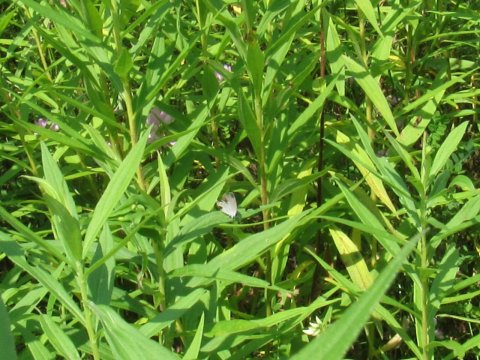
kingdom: Animalia
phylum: Arthropoda
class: Insecta
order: Lepidoptera
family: Lycaenidae
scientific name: Lycaenidae
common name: Gossamerwings
